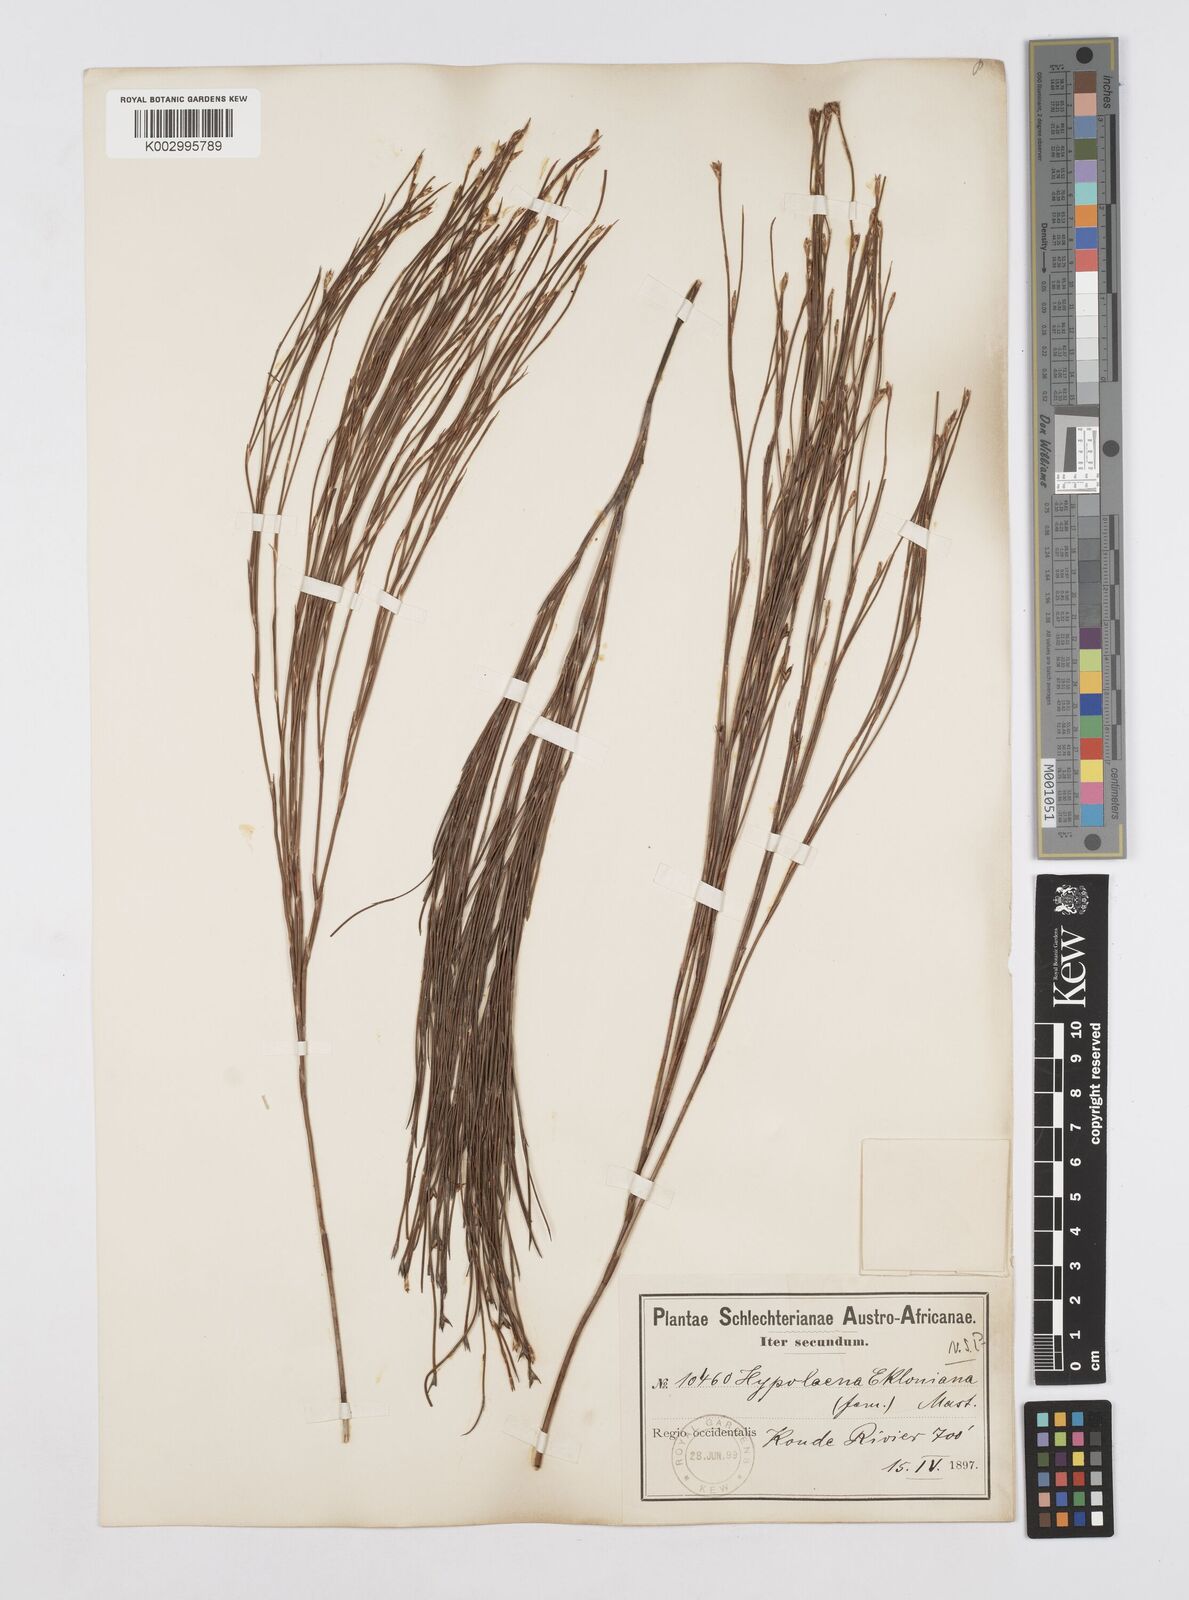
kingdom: Plantae
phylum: Tracheophyta
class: Liliopsida
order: Poales
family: Restionaceae
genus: Mastersiella
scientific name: Mastersiella digitata
